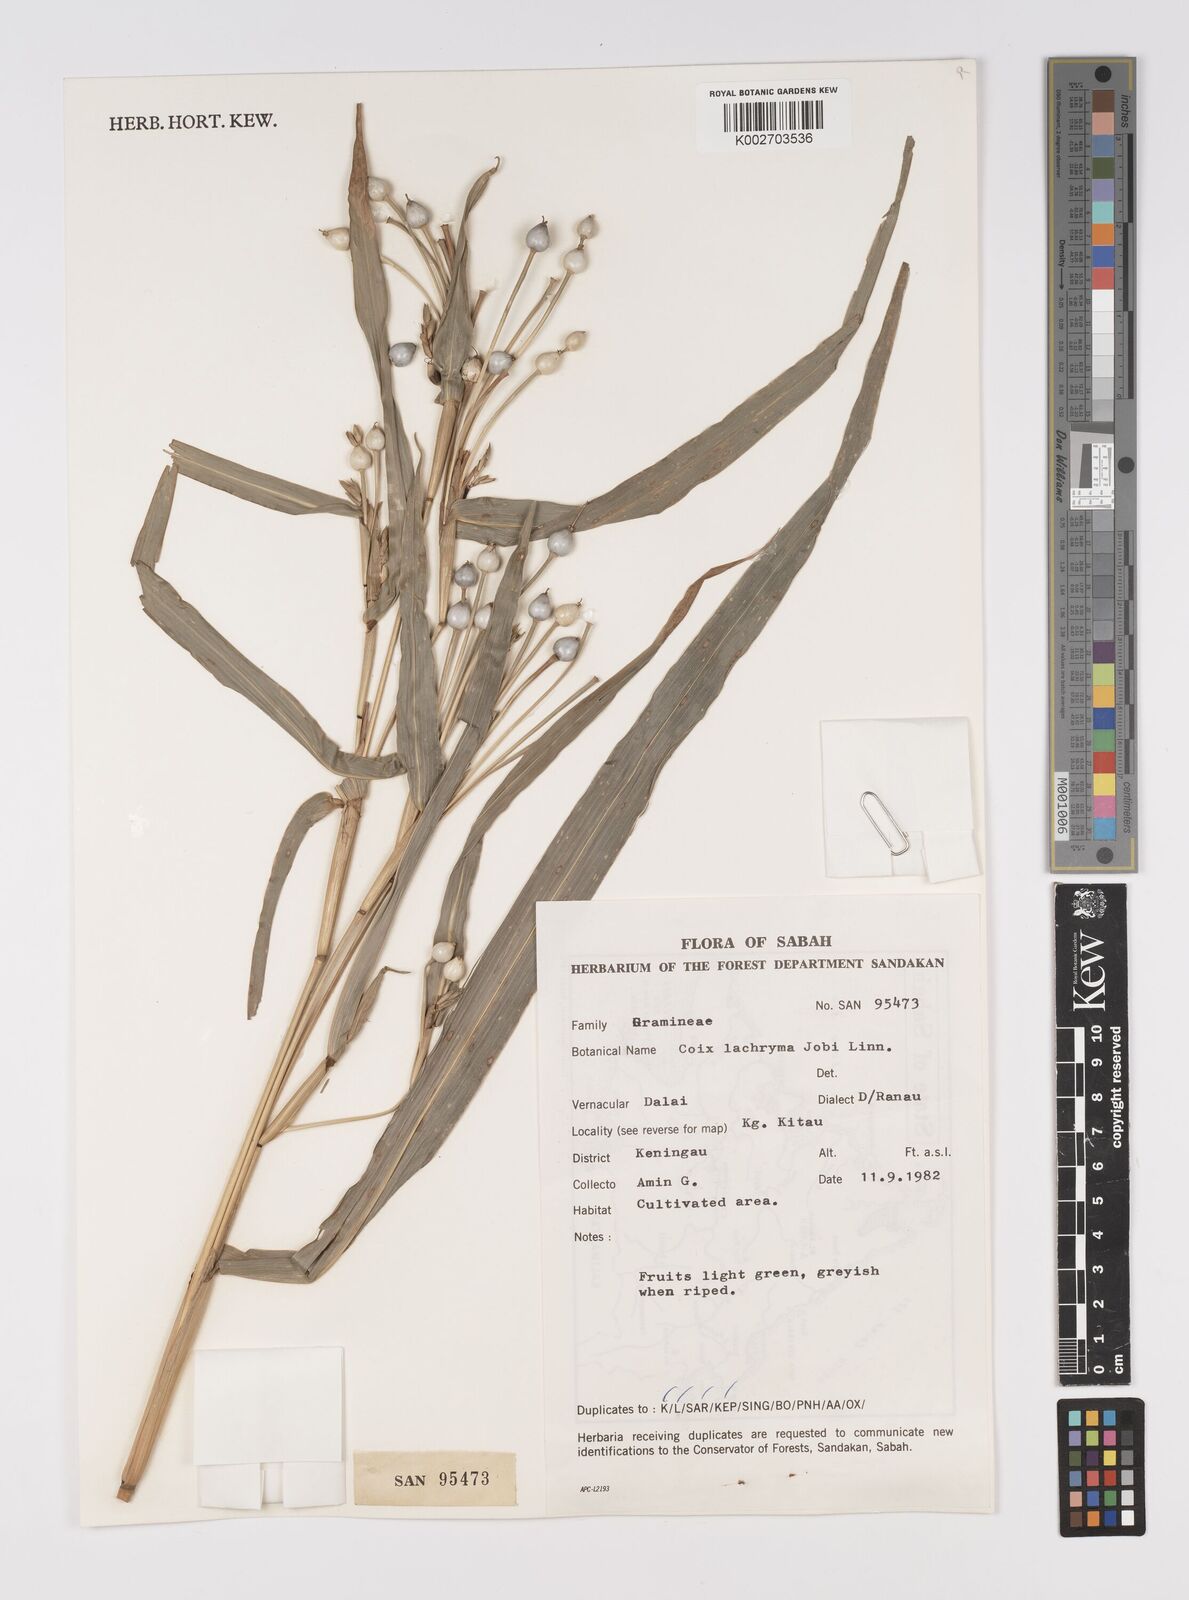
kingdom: Plantae
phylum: Tracheophyta
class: Liliopsida
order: Poales
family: Poaceae
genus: Coix
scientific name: Coix lacryma-jobi
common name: Job's tears
